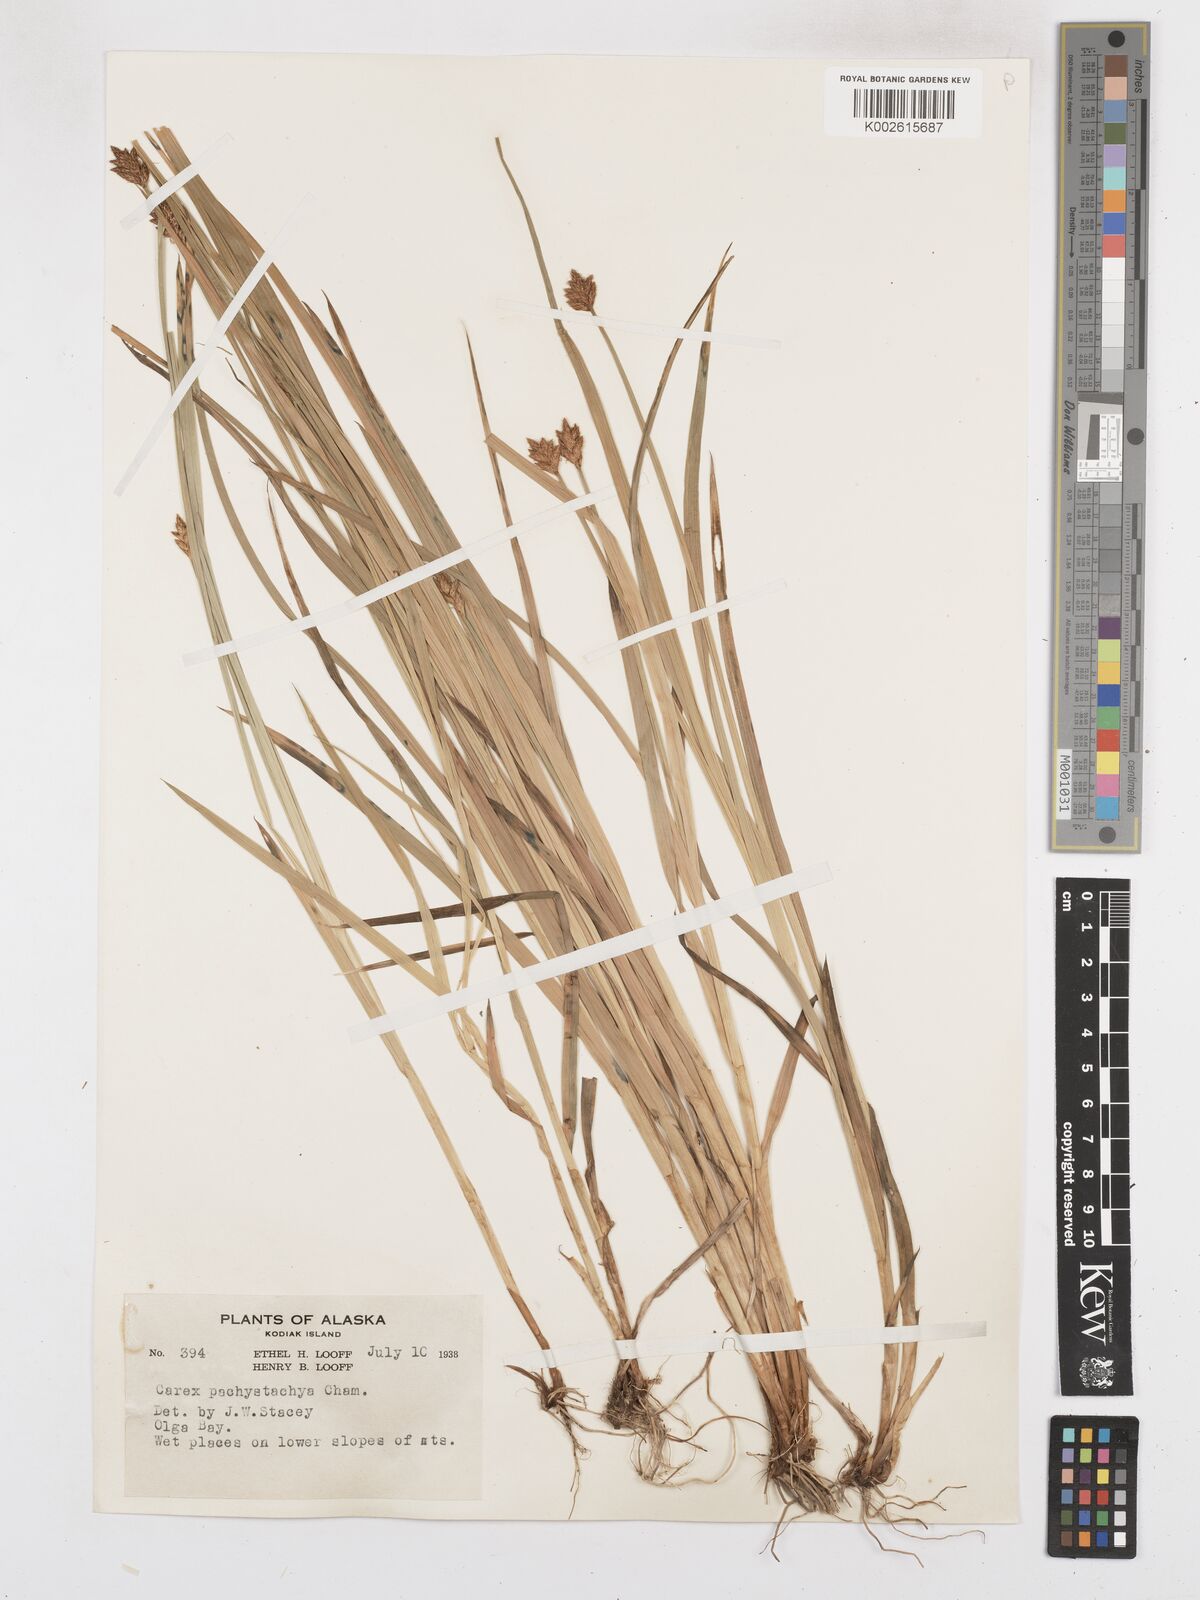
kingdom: Plantae
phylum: Tracheophyta
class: Liliopsida
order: Poales
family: Cyperaceae
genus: Carex
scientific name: Carex pachystachya
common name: Chamisso's sedge
